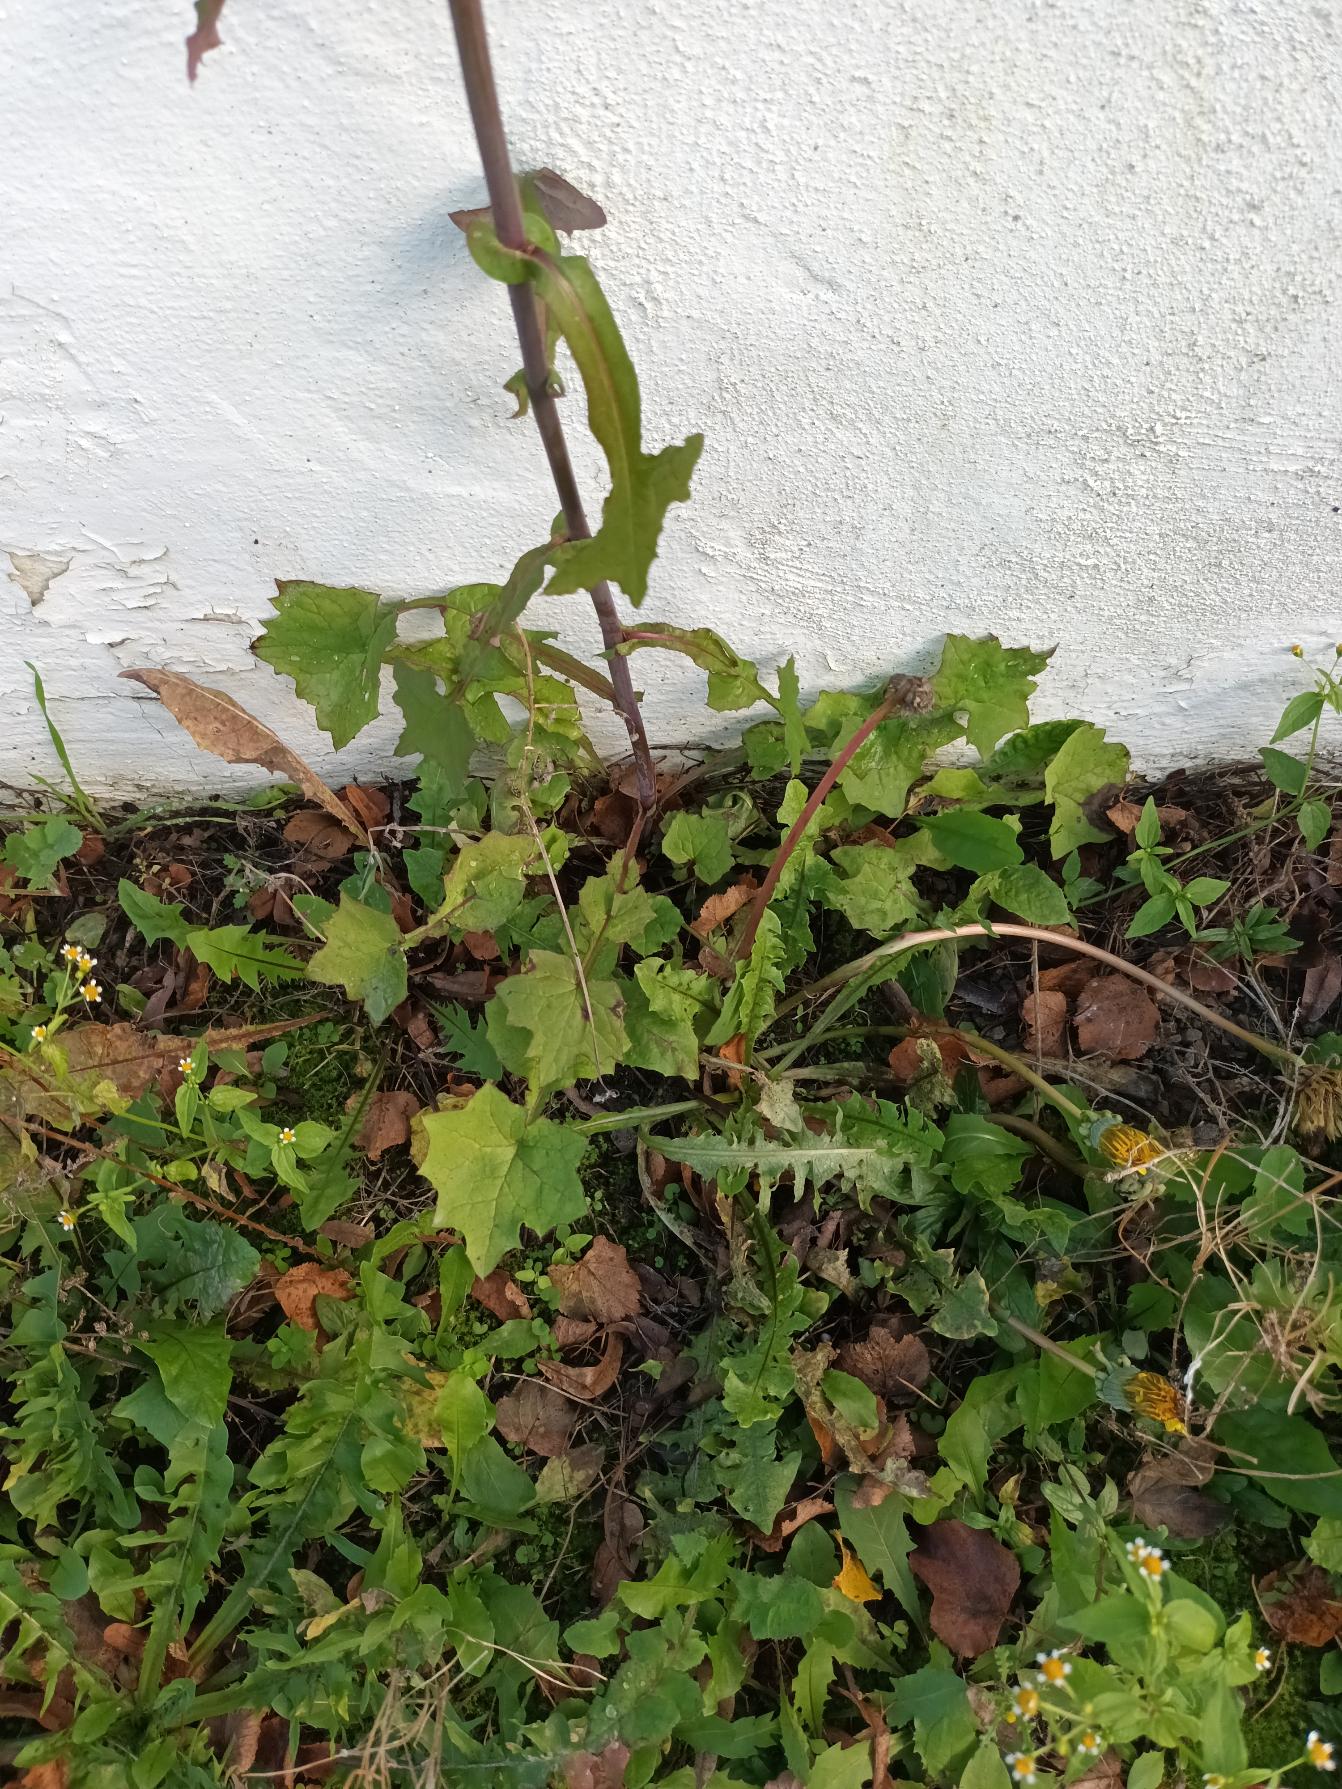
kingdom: Plantae
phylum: Tracheophyta
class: Magnoliopsida
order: Asterales
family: Asteraceae
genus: Mycelis
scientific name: Mycelis muralis
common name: Skov-salat
